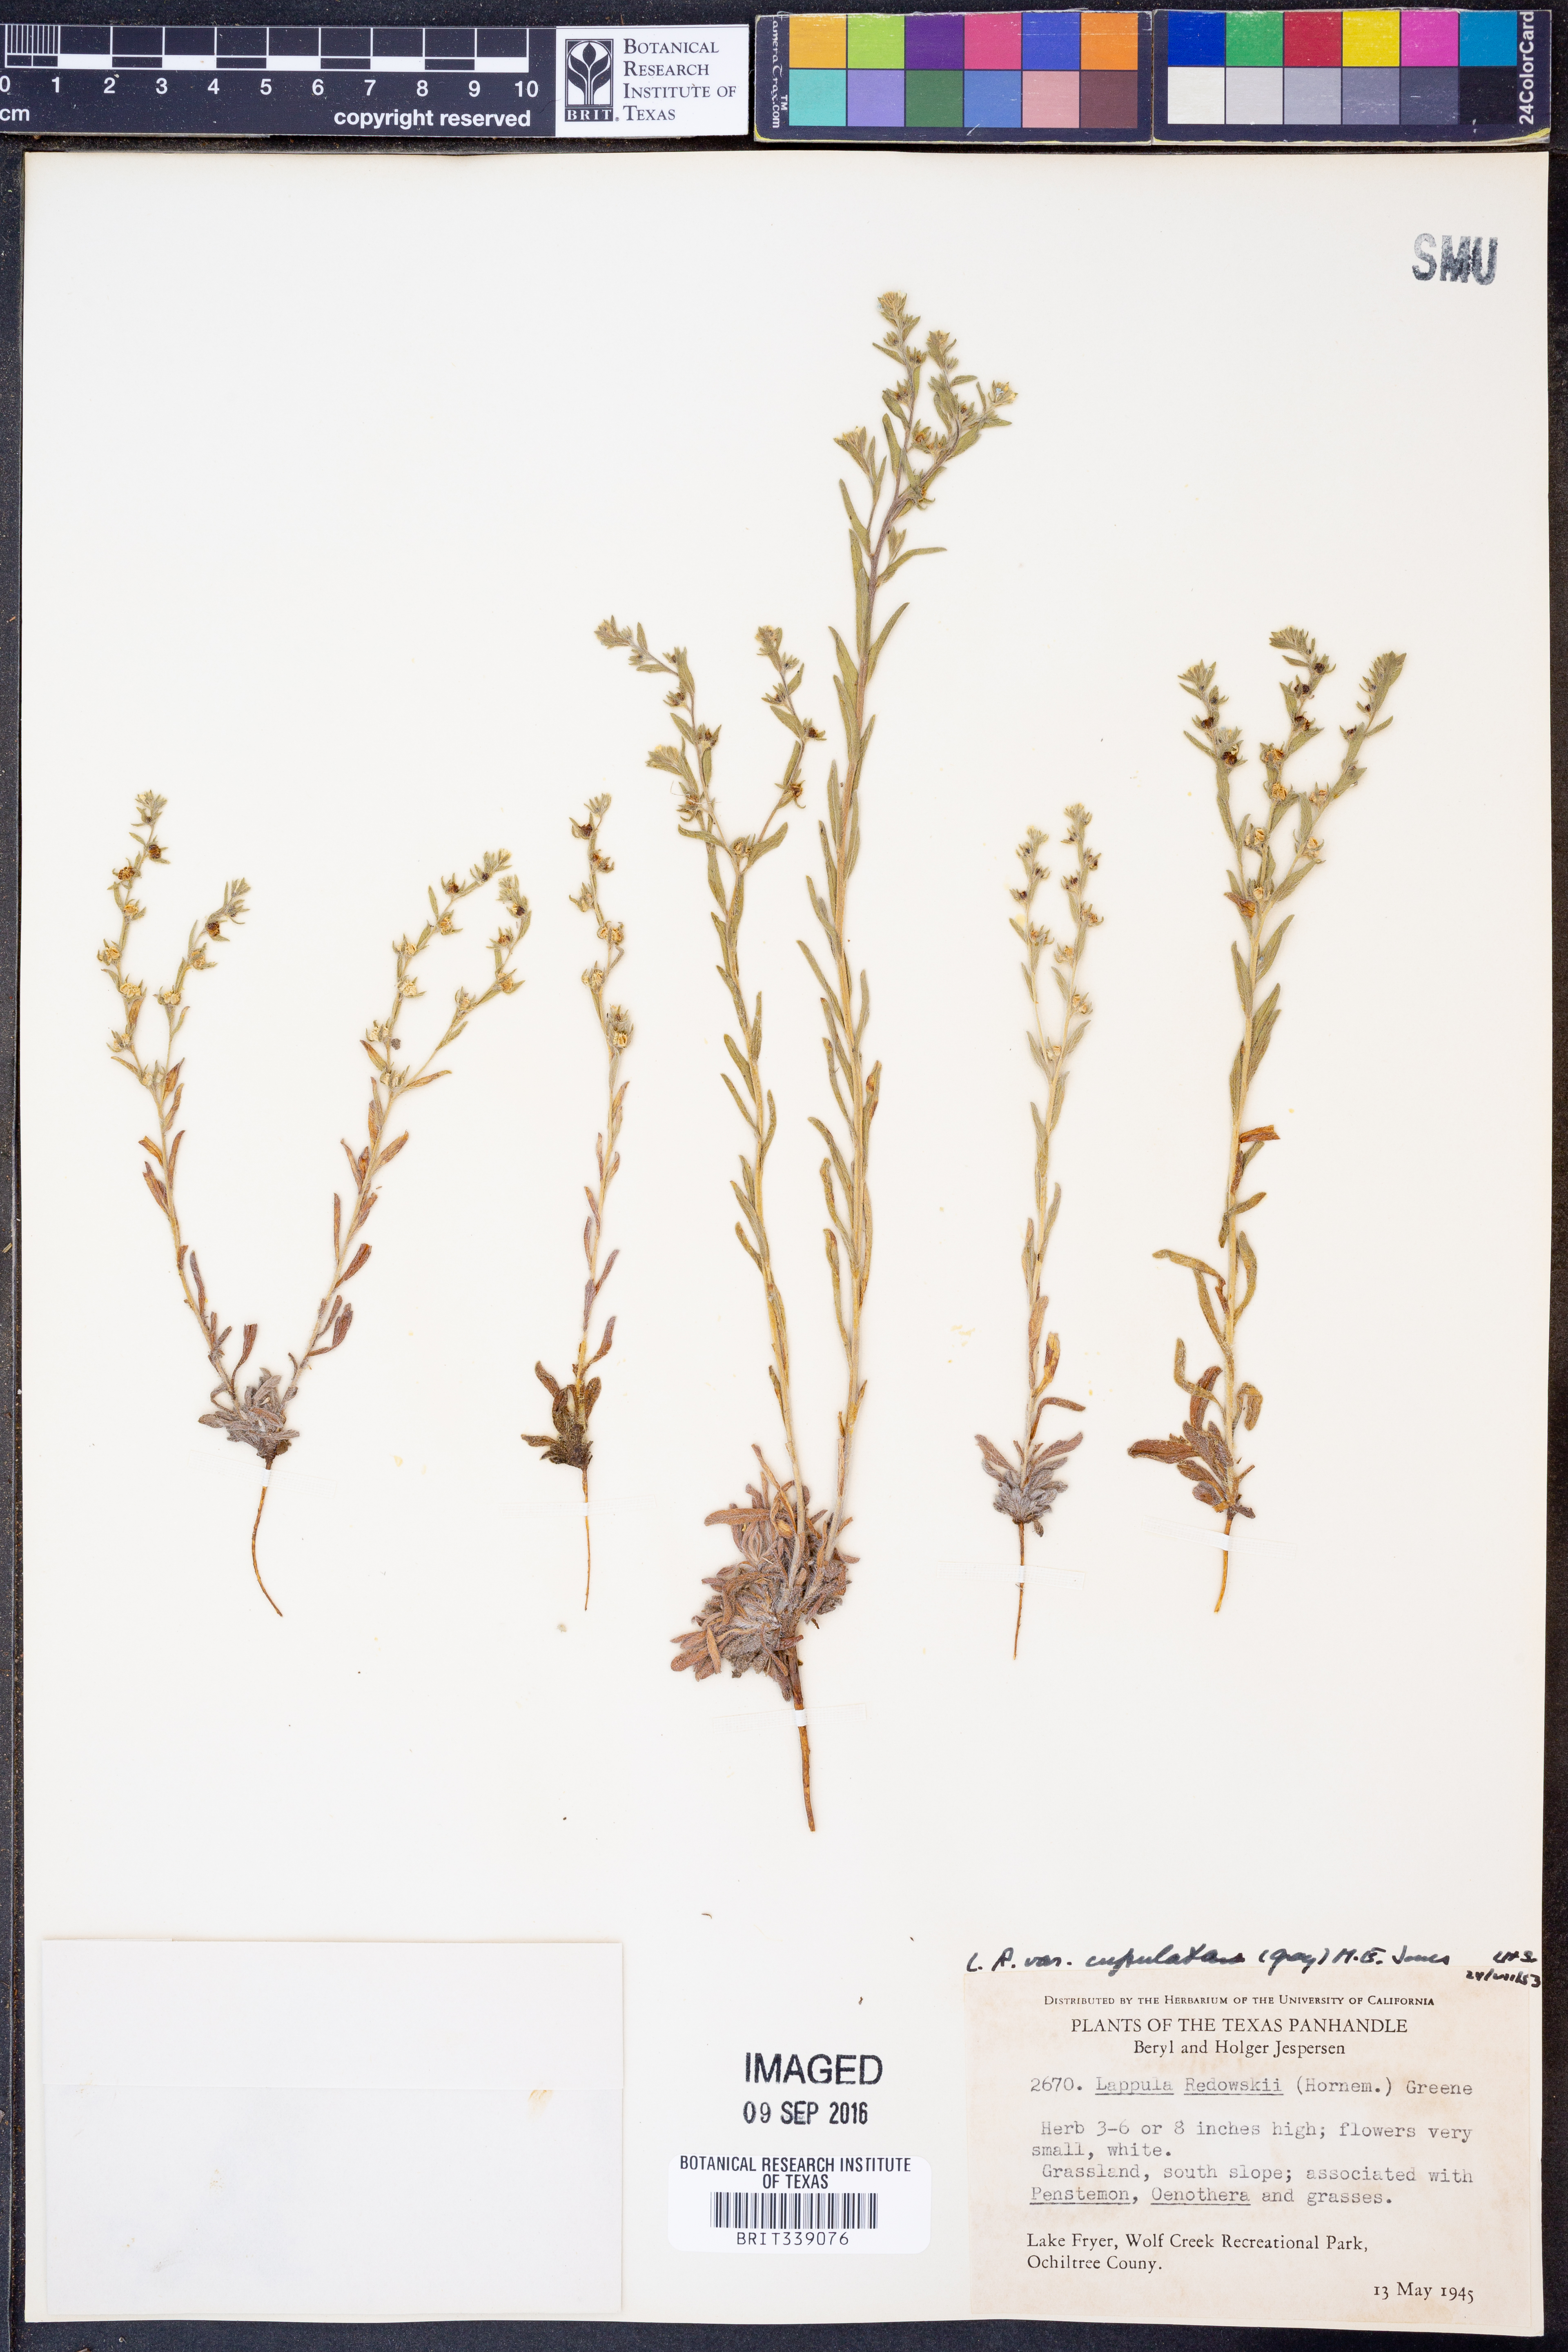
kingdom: Plantae
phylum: Tracheophyta
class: Magnoliopsida
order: Boraginales
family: Boraginaceae
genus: Lappula
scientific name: Lappula occidentalis
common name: Western stickseed
